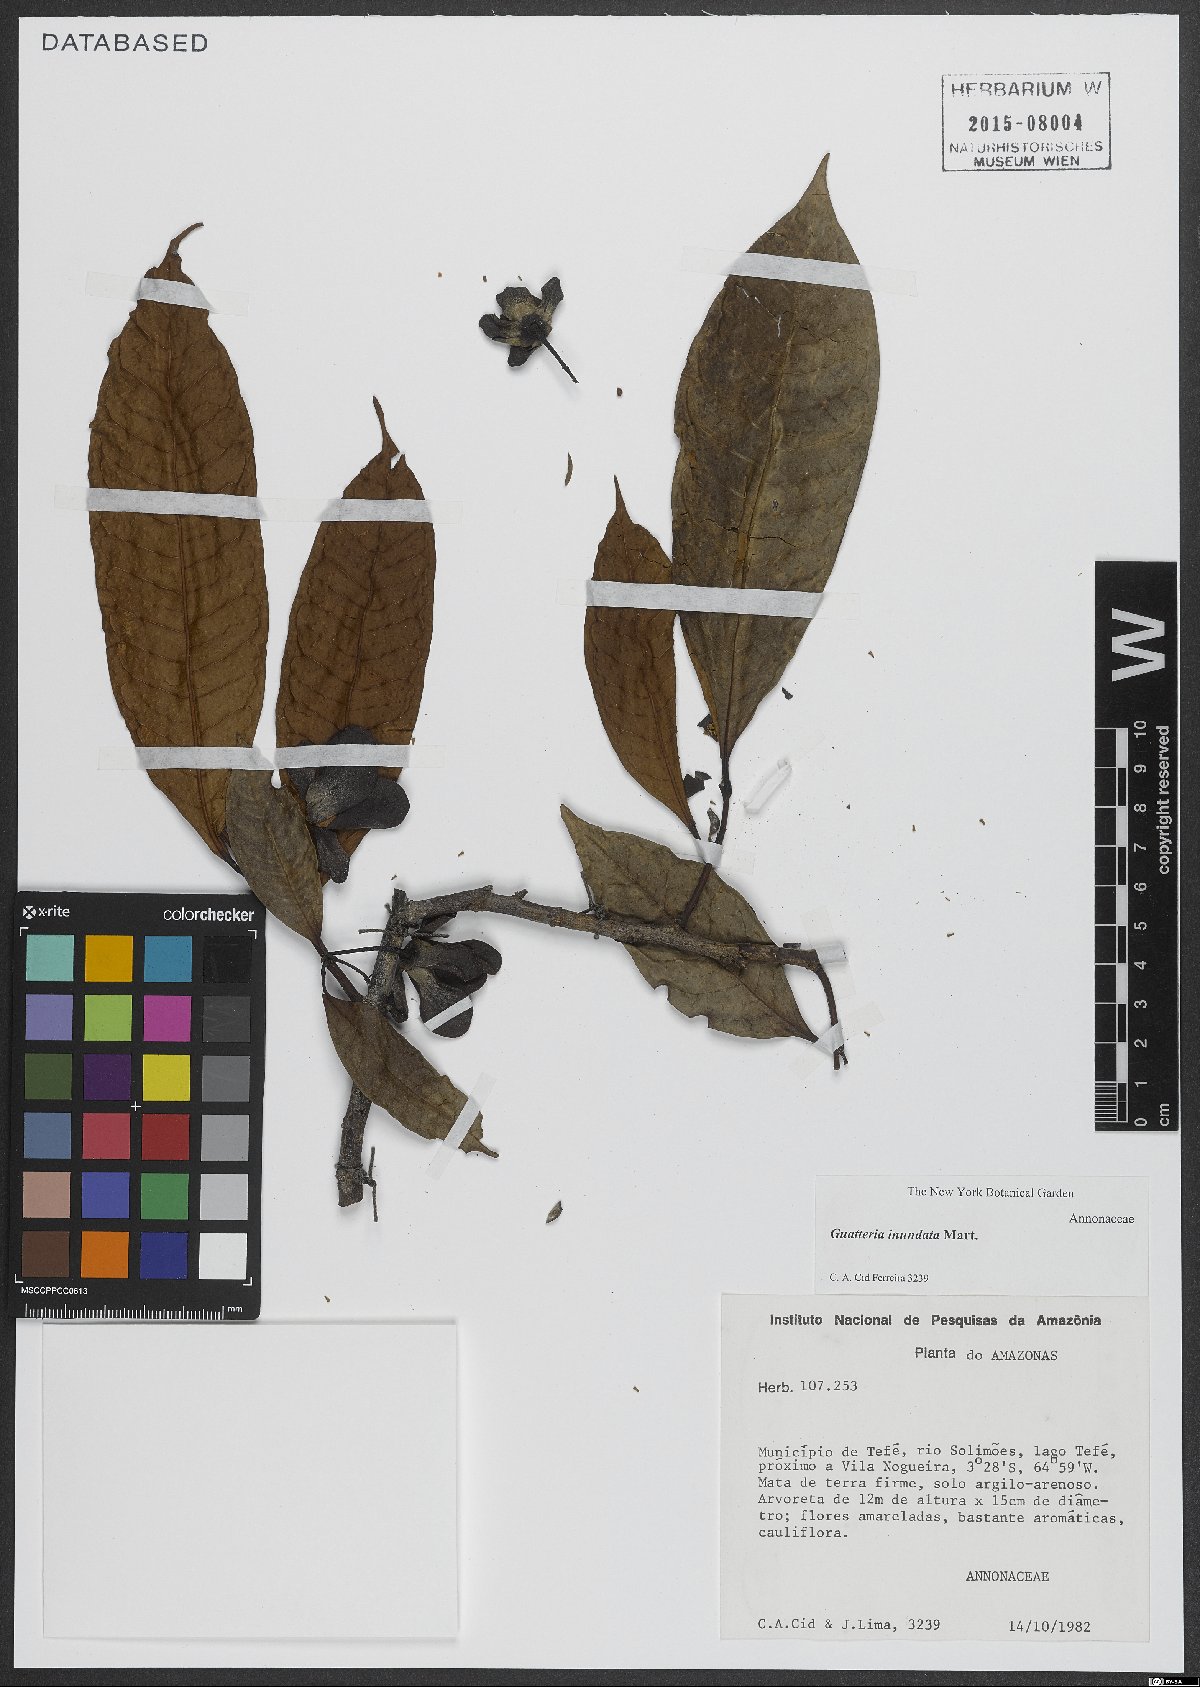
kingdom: Plantae
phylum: Tracheophyta
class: Magnoliopsida
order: Magnoliales
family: Annonaceae
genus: Guatteria
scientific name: Guatteria inundata
